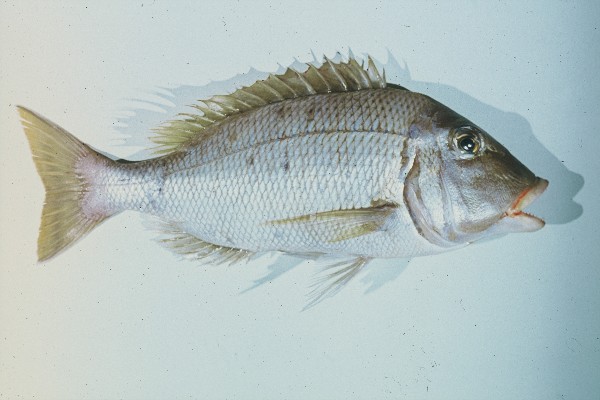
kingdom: Animalia
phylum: Chordata
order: Perciformes
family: Lethrinidae
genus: Lethrinus
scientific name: Lethrinus crocineus
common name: Yellowtail emperor
